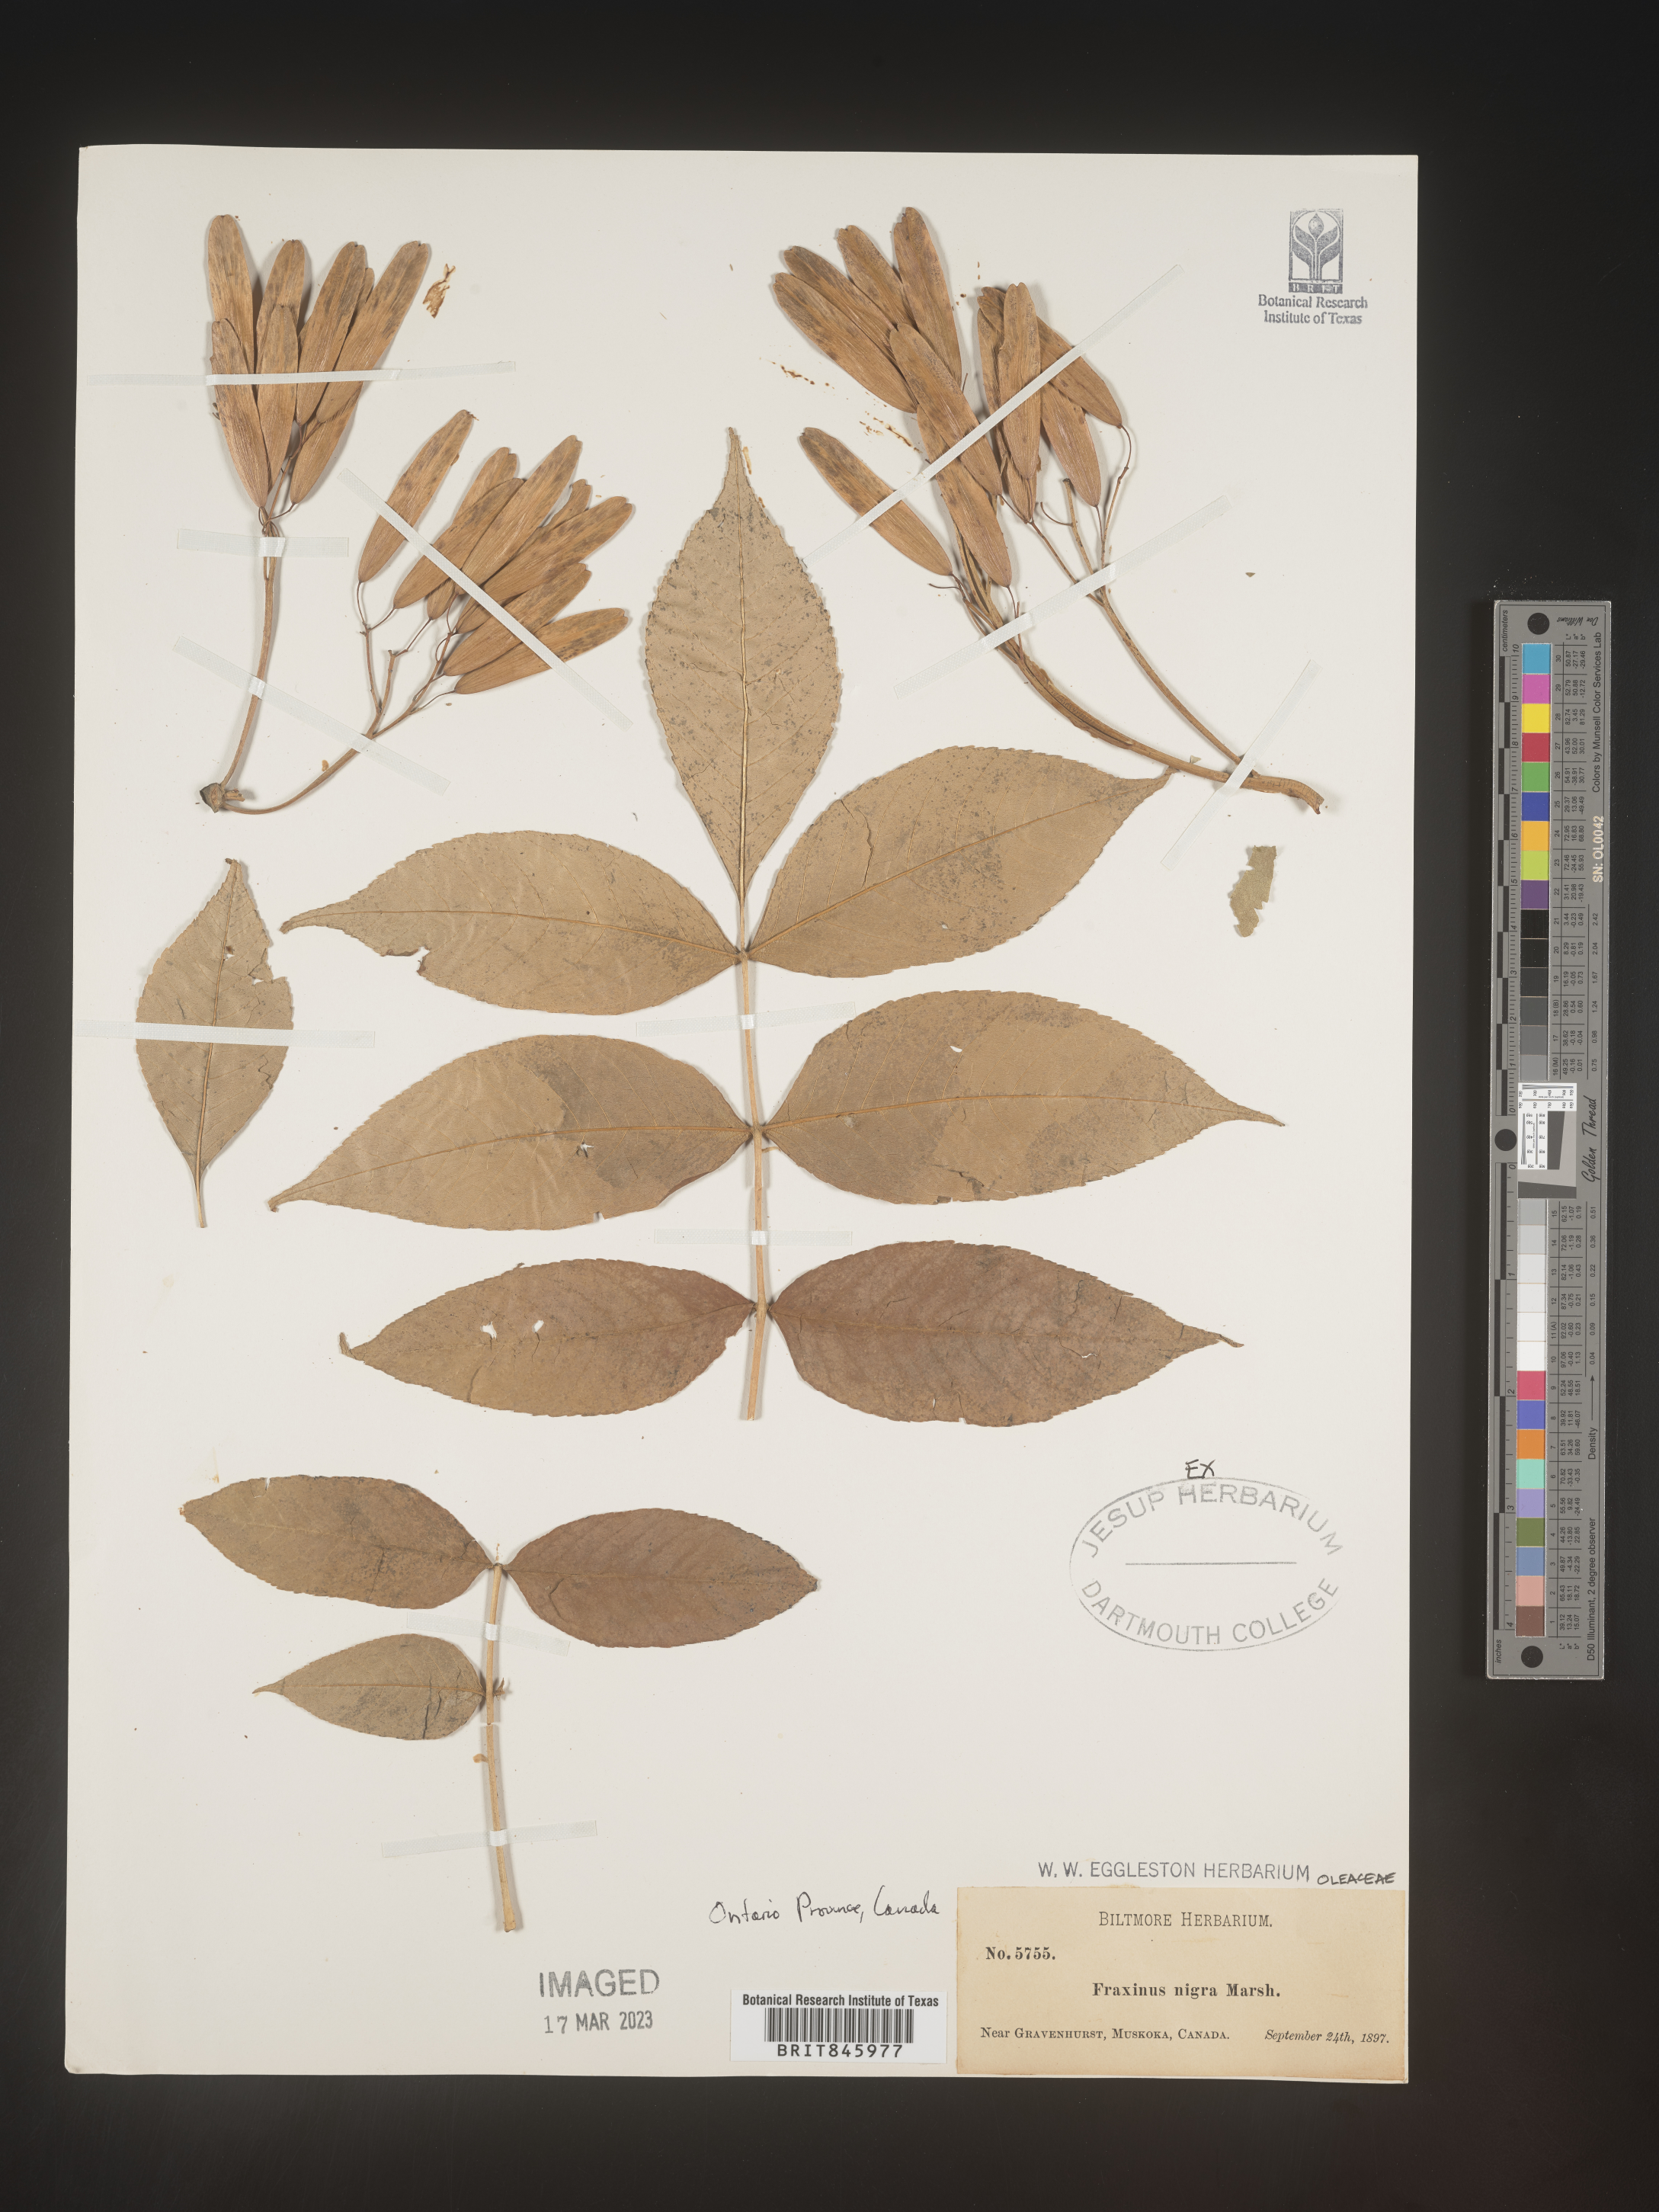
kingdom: Plantae
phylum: Tracheophyta
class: Magnoliopsida
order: Lamiales
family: Oleaceae
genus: Fraxinus
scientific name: Fraxinus nigra
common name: Black ash
